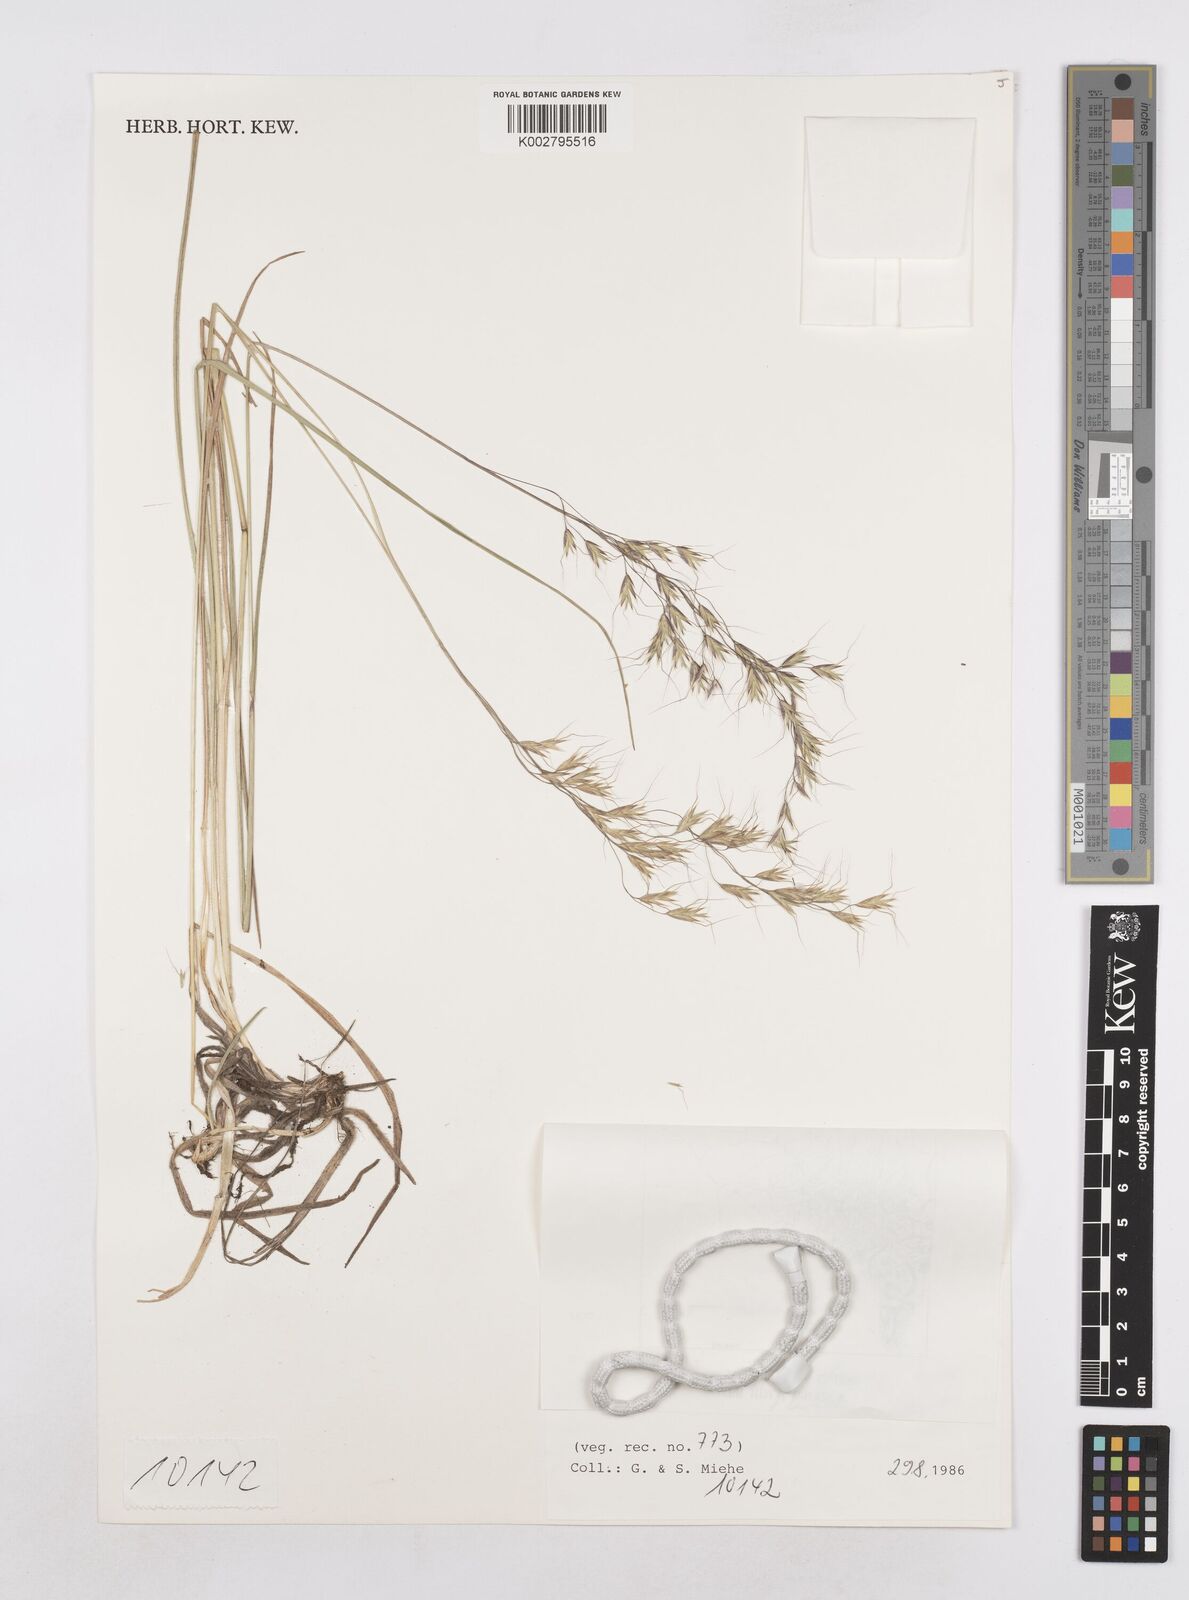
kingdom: Plantae
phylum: Tracheophyta
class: Liliopsida
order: Poales
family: Poaceae
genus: Trisetopsis
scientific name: Trisetopsis junghuhnii
